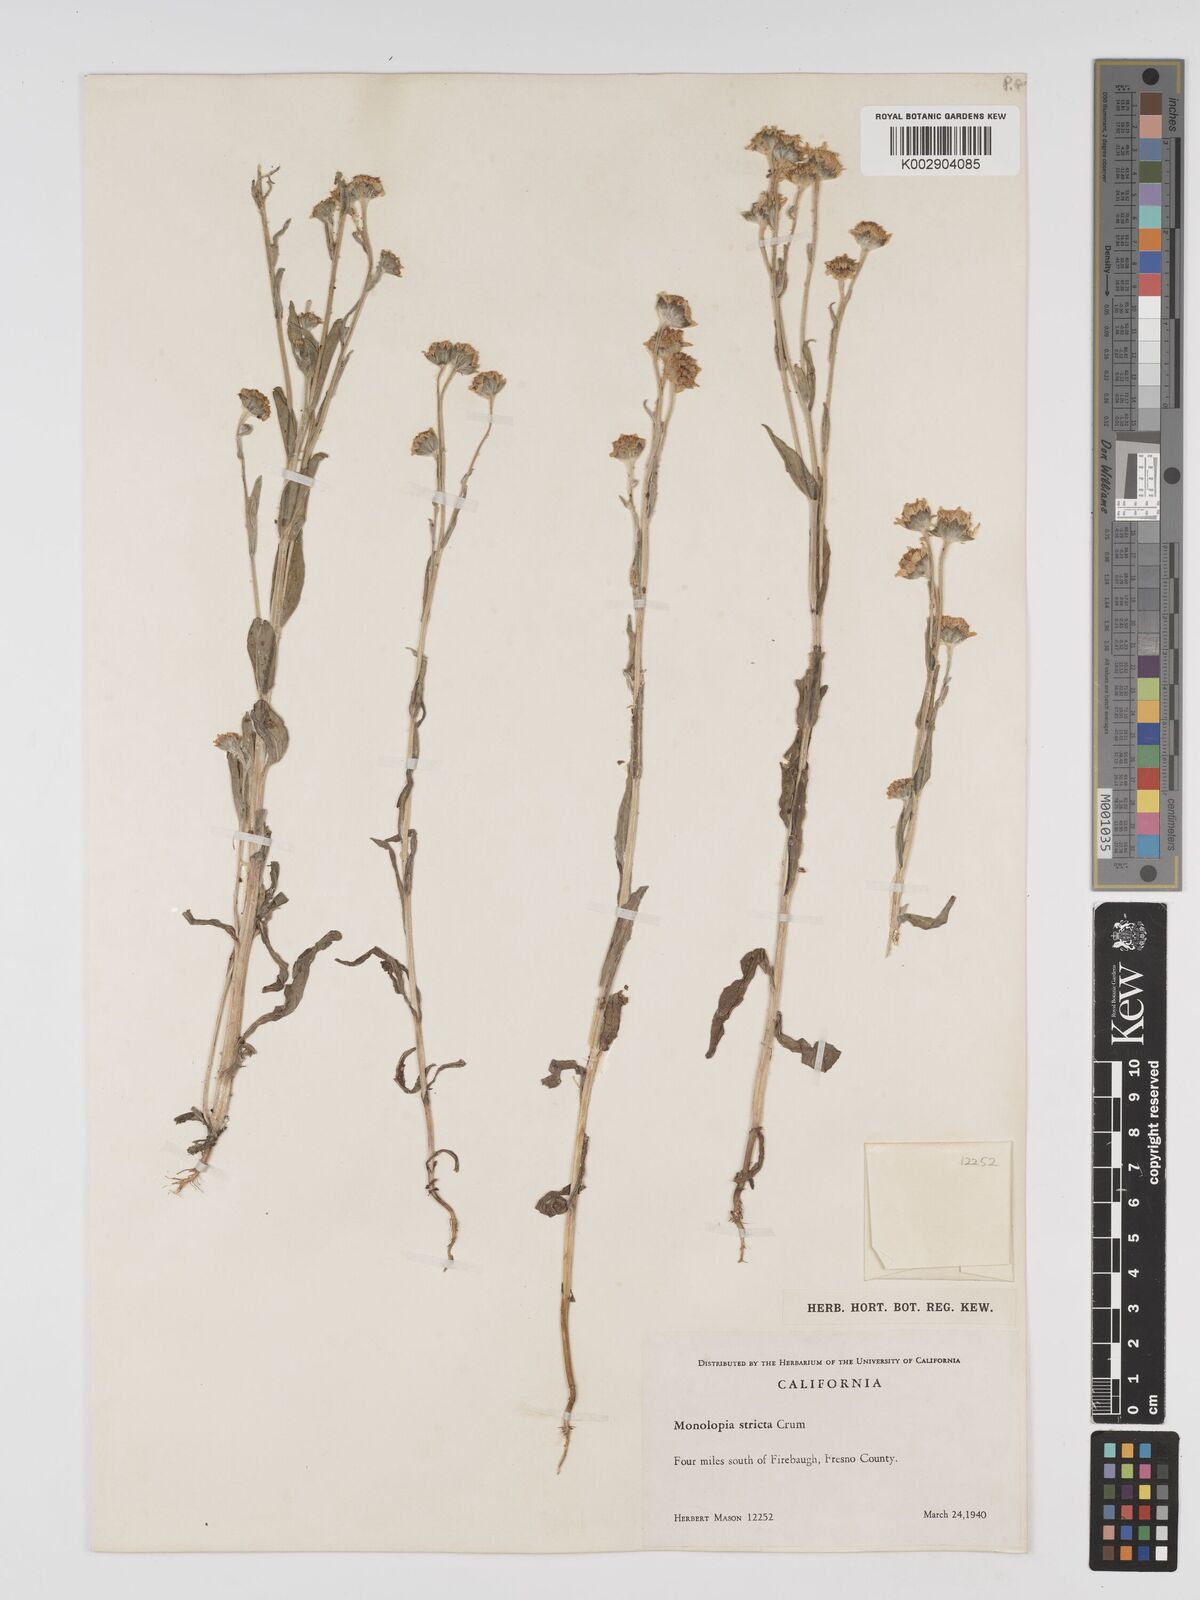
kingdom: Plantae
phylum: Tracheophyta
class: Magnoliopsida
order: Asterales
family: Asteraceae
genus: Monolopia
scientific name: Monolopia stricta
